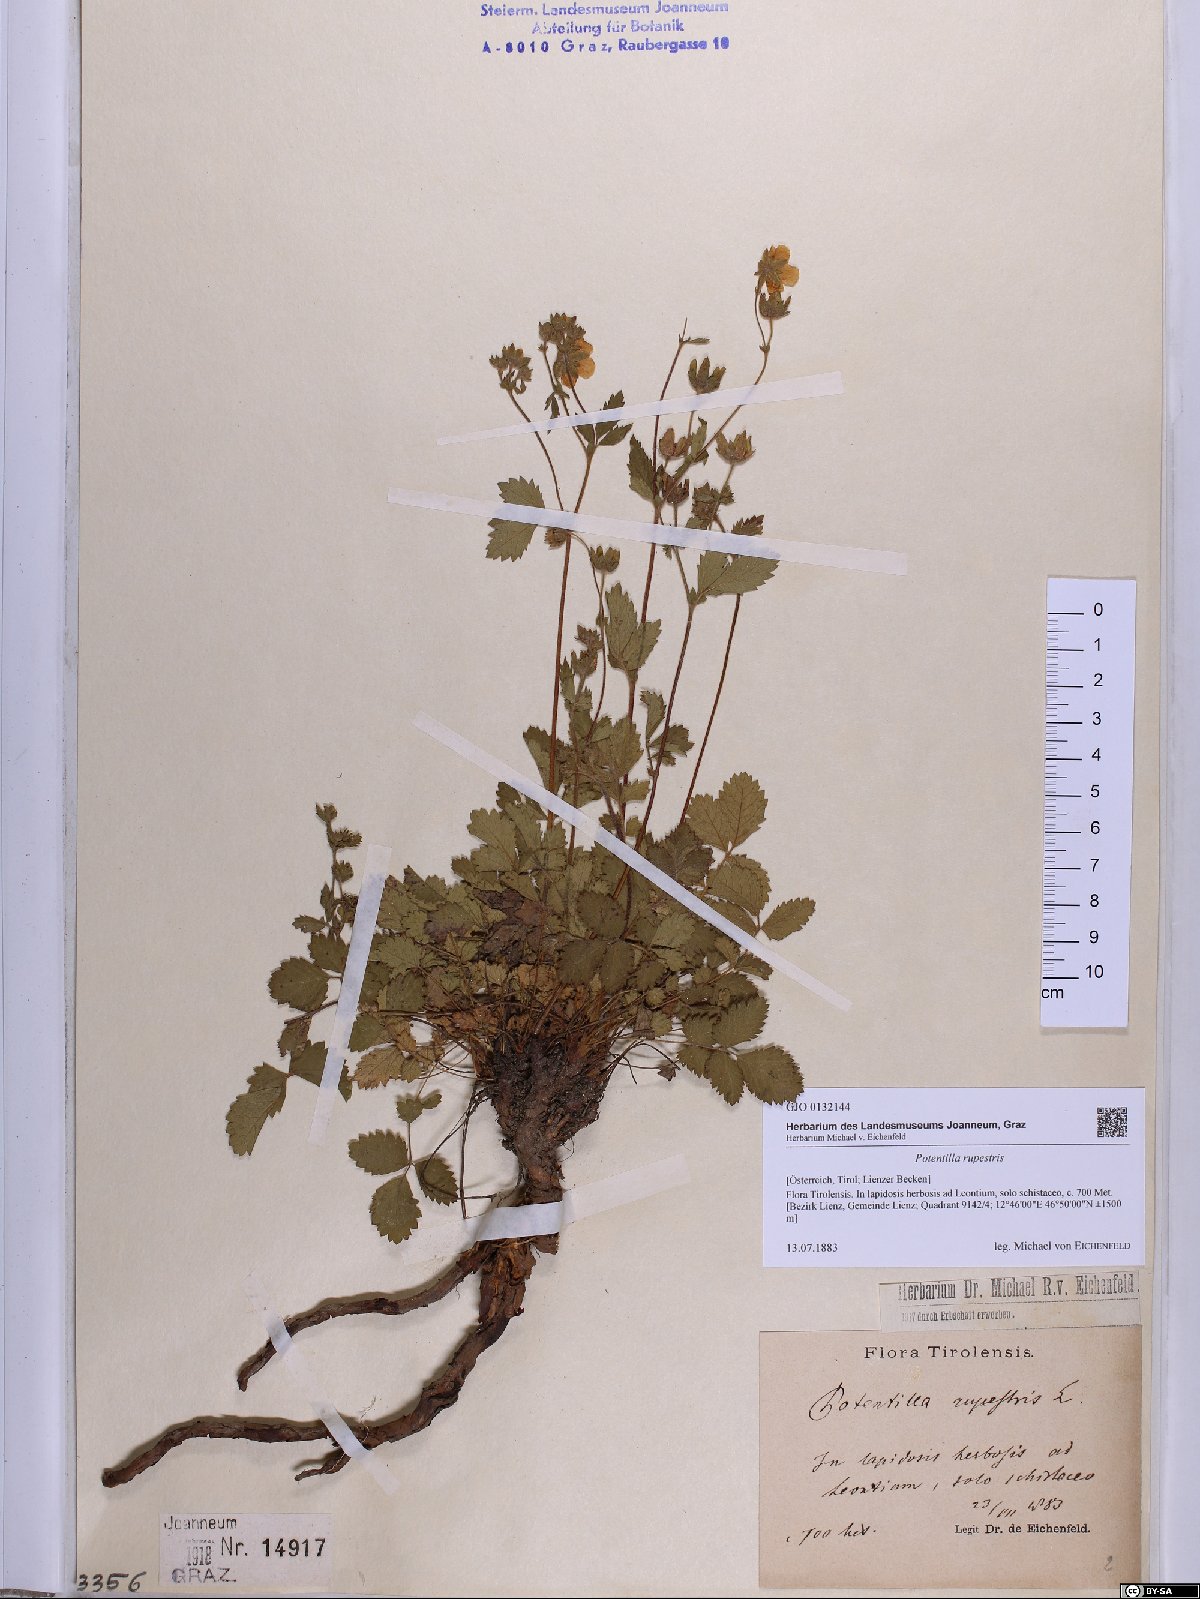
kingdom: Plantae
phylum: Tracheophyta
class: Magnoliopsida
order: Rosales
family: Rosaceae
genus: Drymocallis
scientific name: Drymocallis rupestris
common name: Rock cinquefoil
